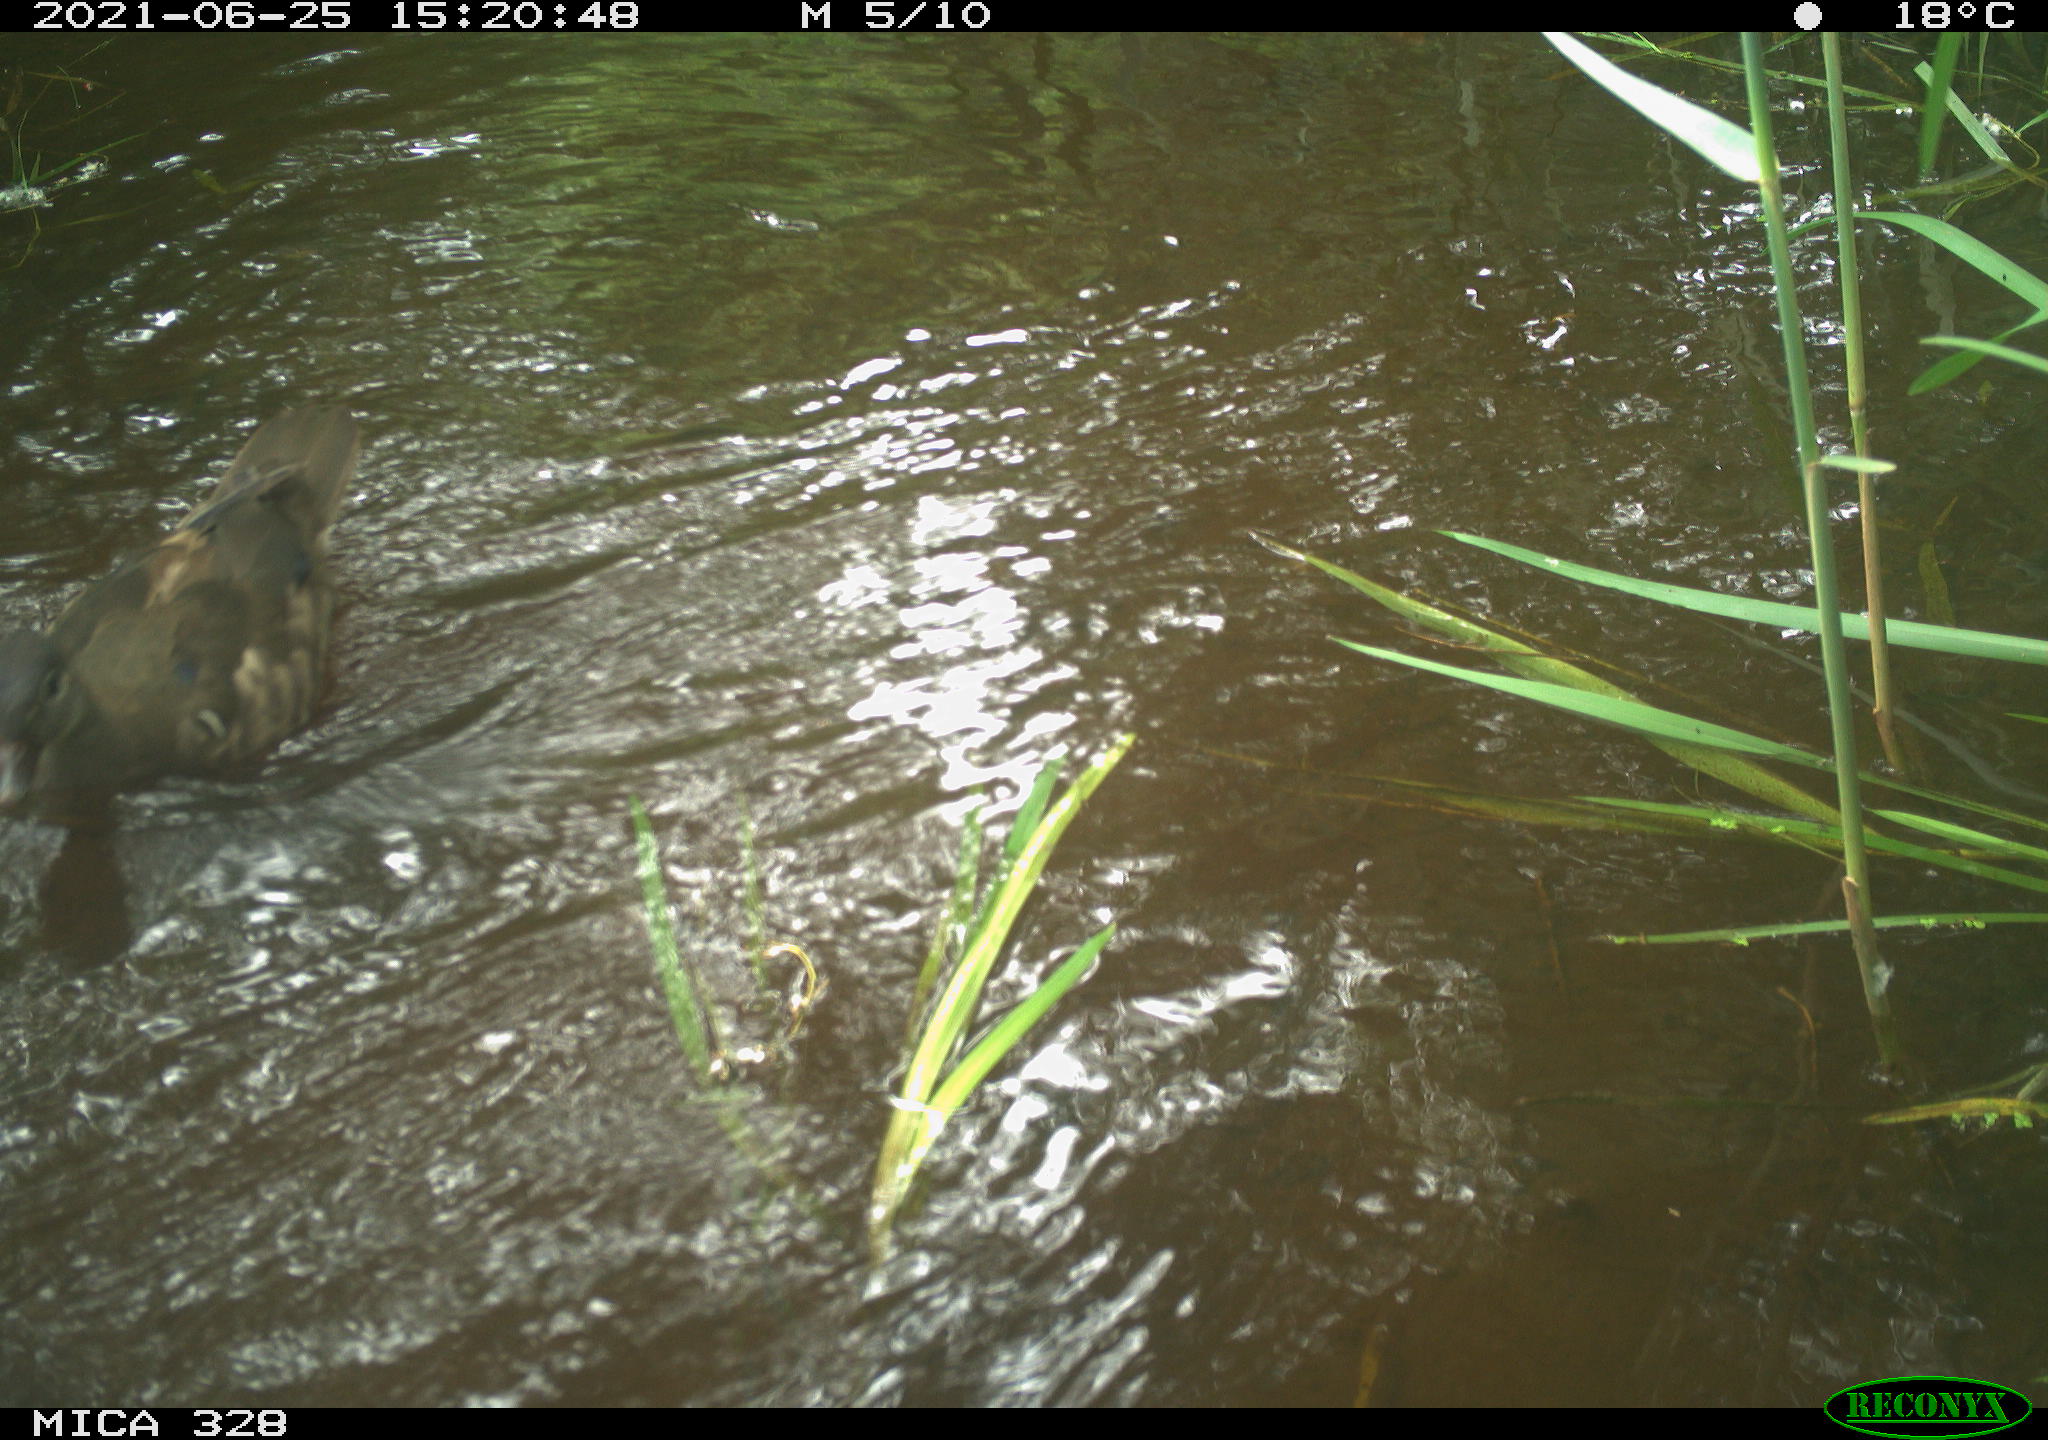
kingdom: Animalia
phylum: Chordata
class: Aves
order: Anseriformes
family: Anatidae
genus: Aix
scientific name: Aix galericulata
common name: Mandarin duck
